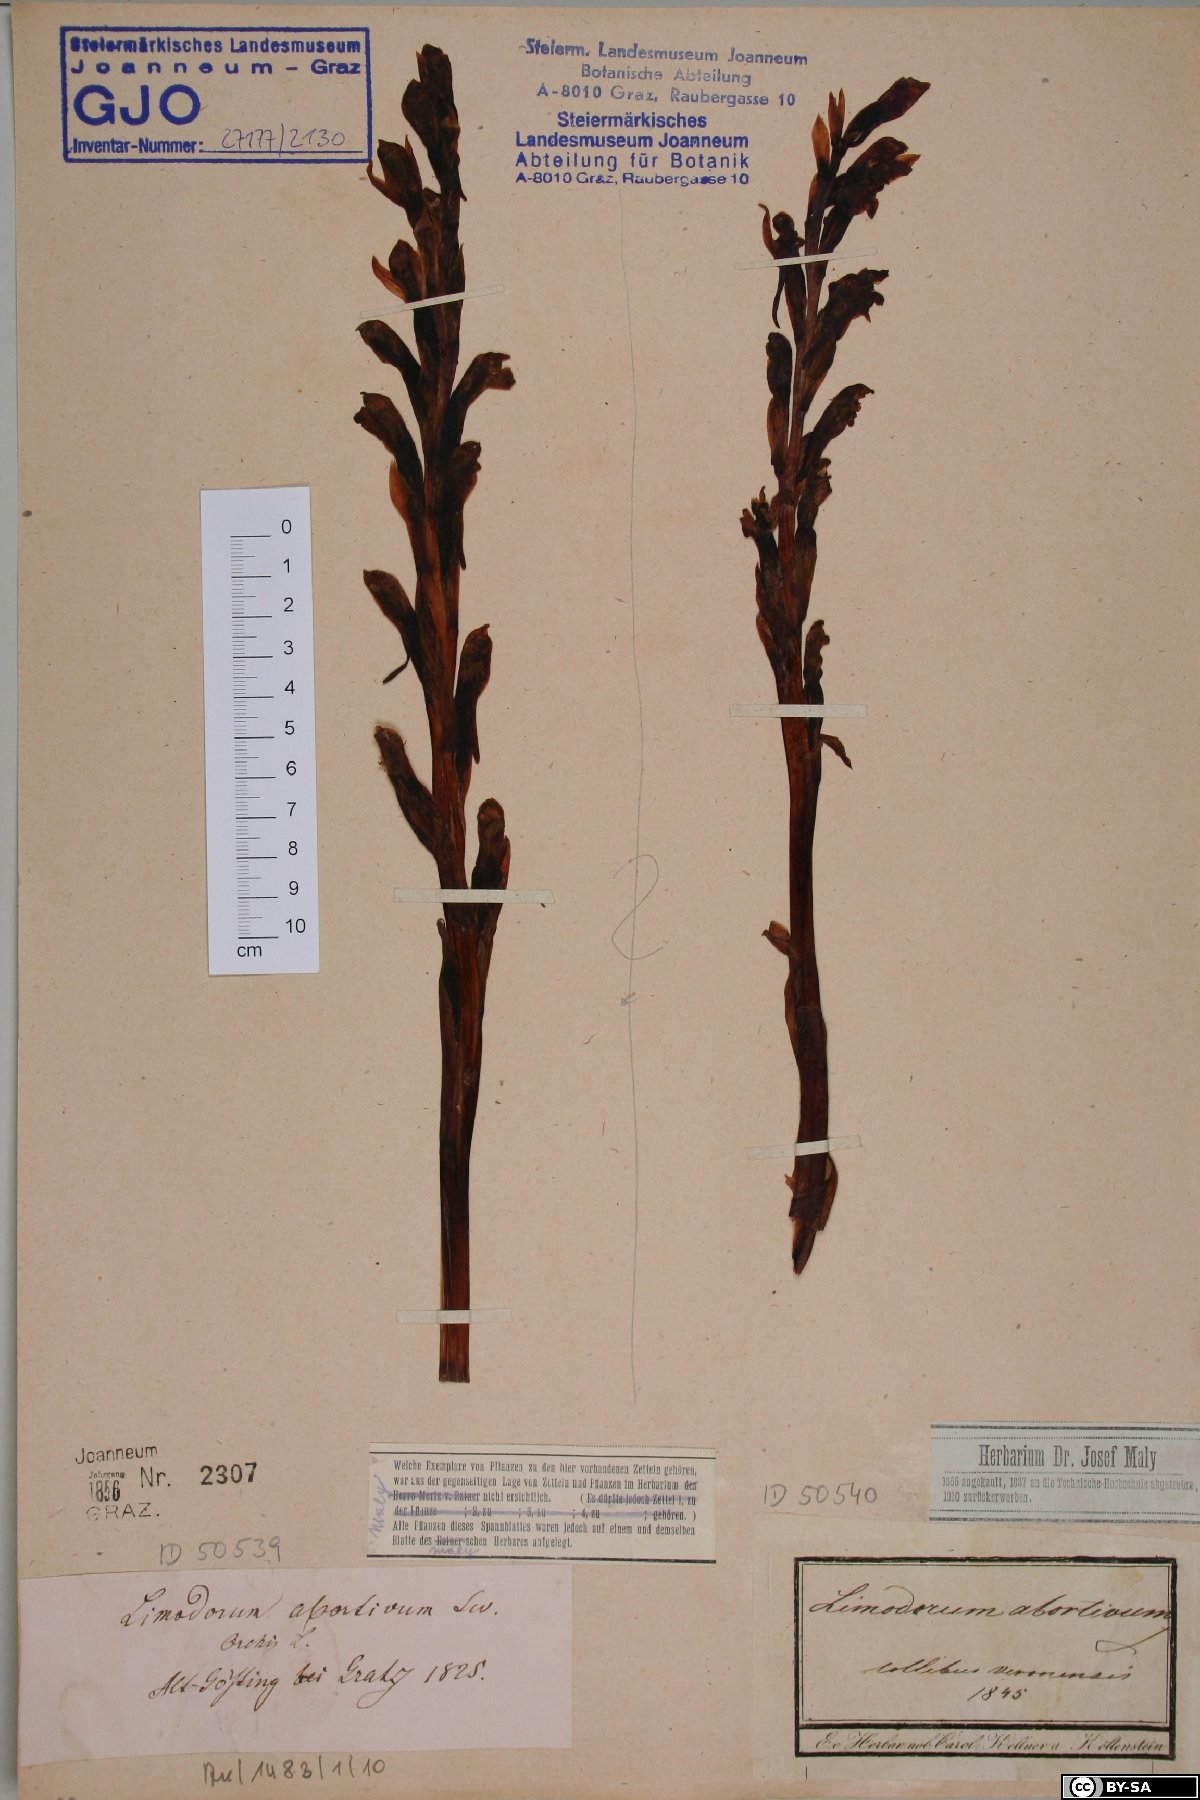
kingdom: Plantae
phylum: Tracheophyta
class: Liliopsida
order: Asparagales
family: Orchidaceae
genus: Limodorum
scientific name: Limodorum abortivum
